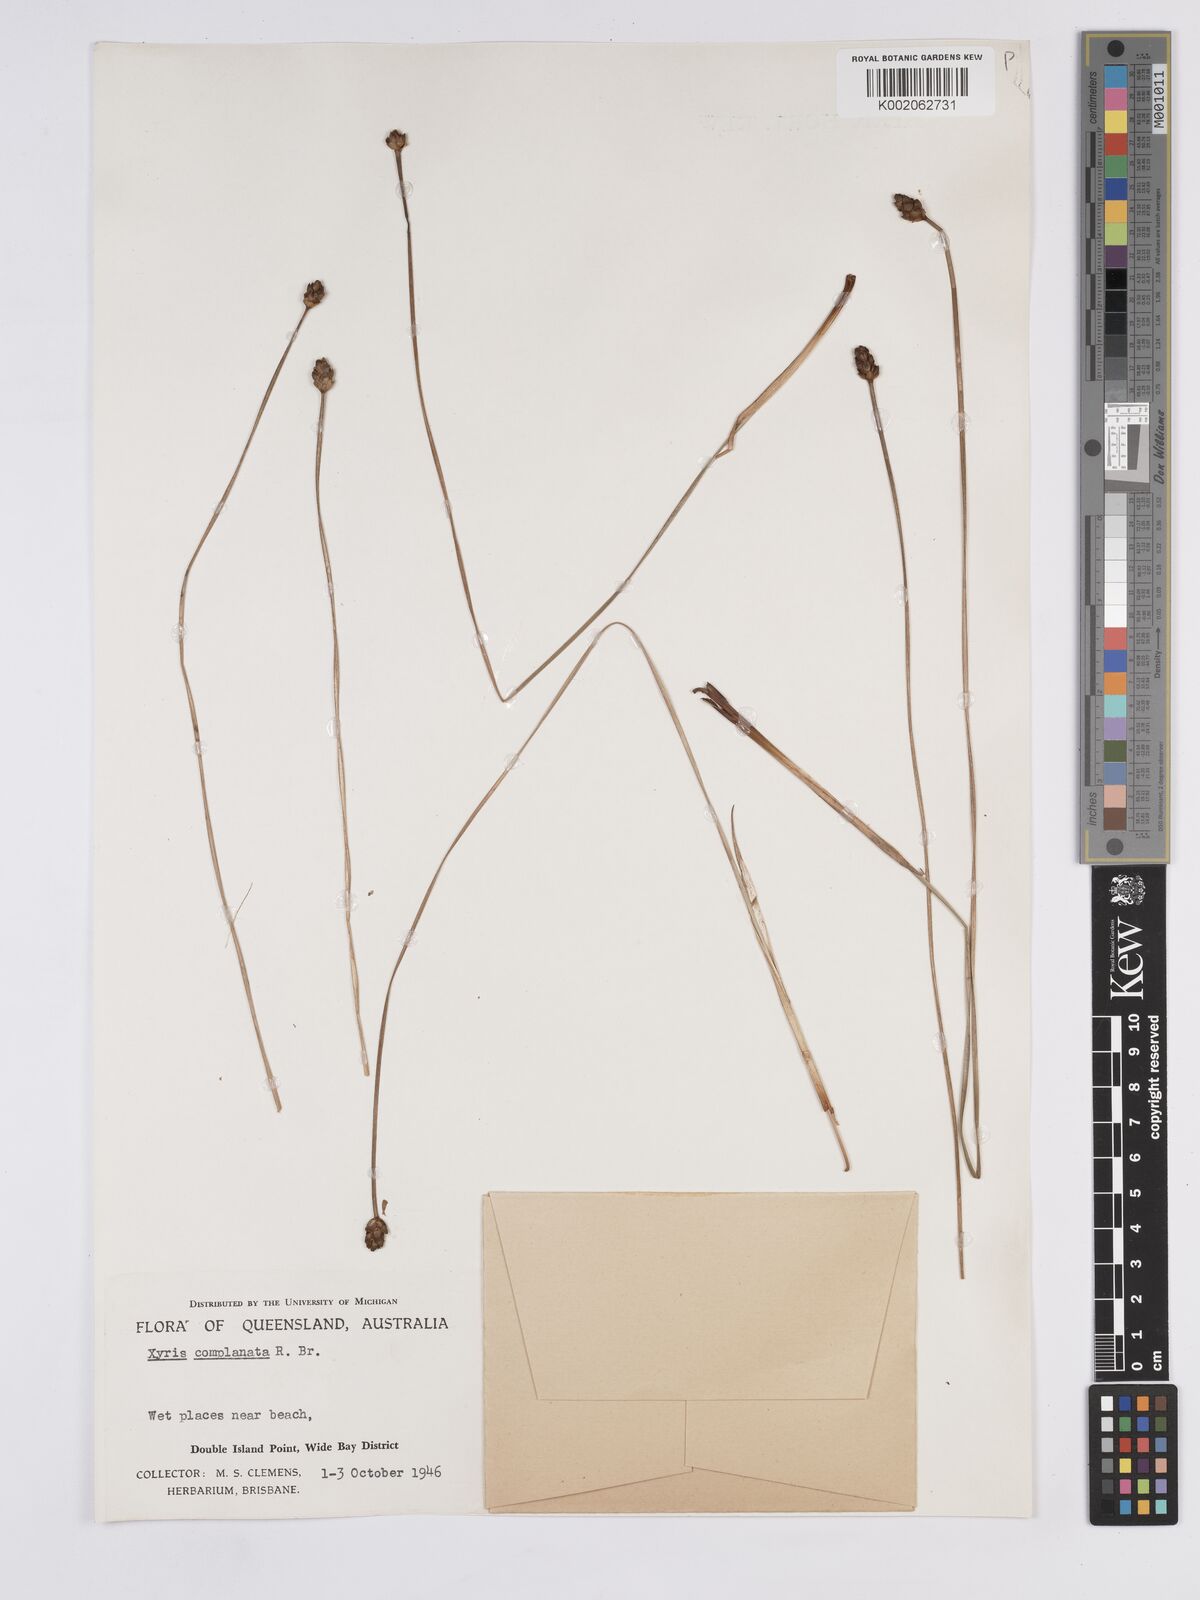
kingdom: Plantae
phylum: Tracheophyta
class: Liliopsida
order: Poales
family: Xyridaceae
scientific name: Xyridaceae
